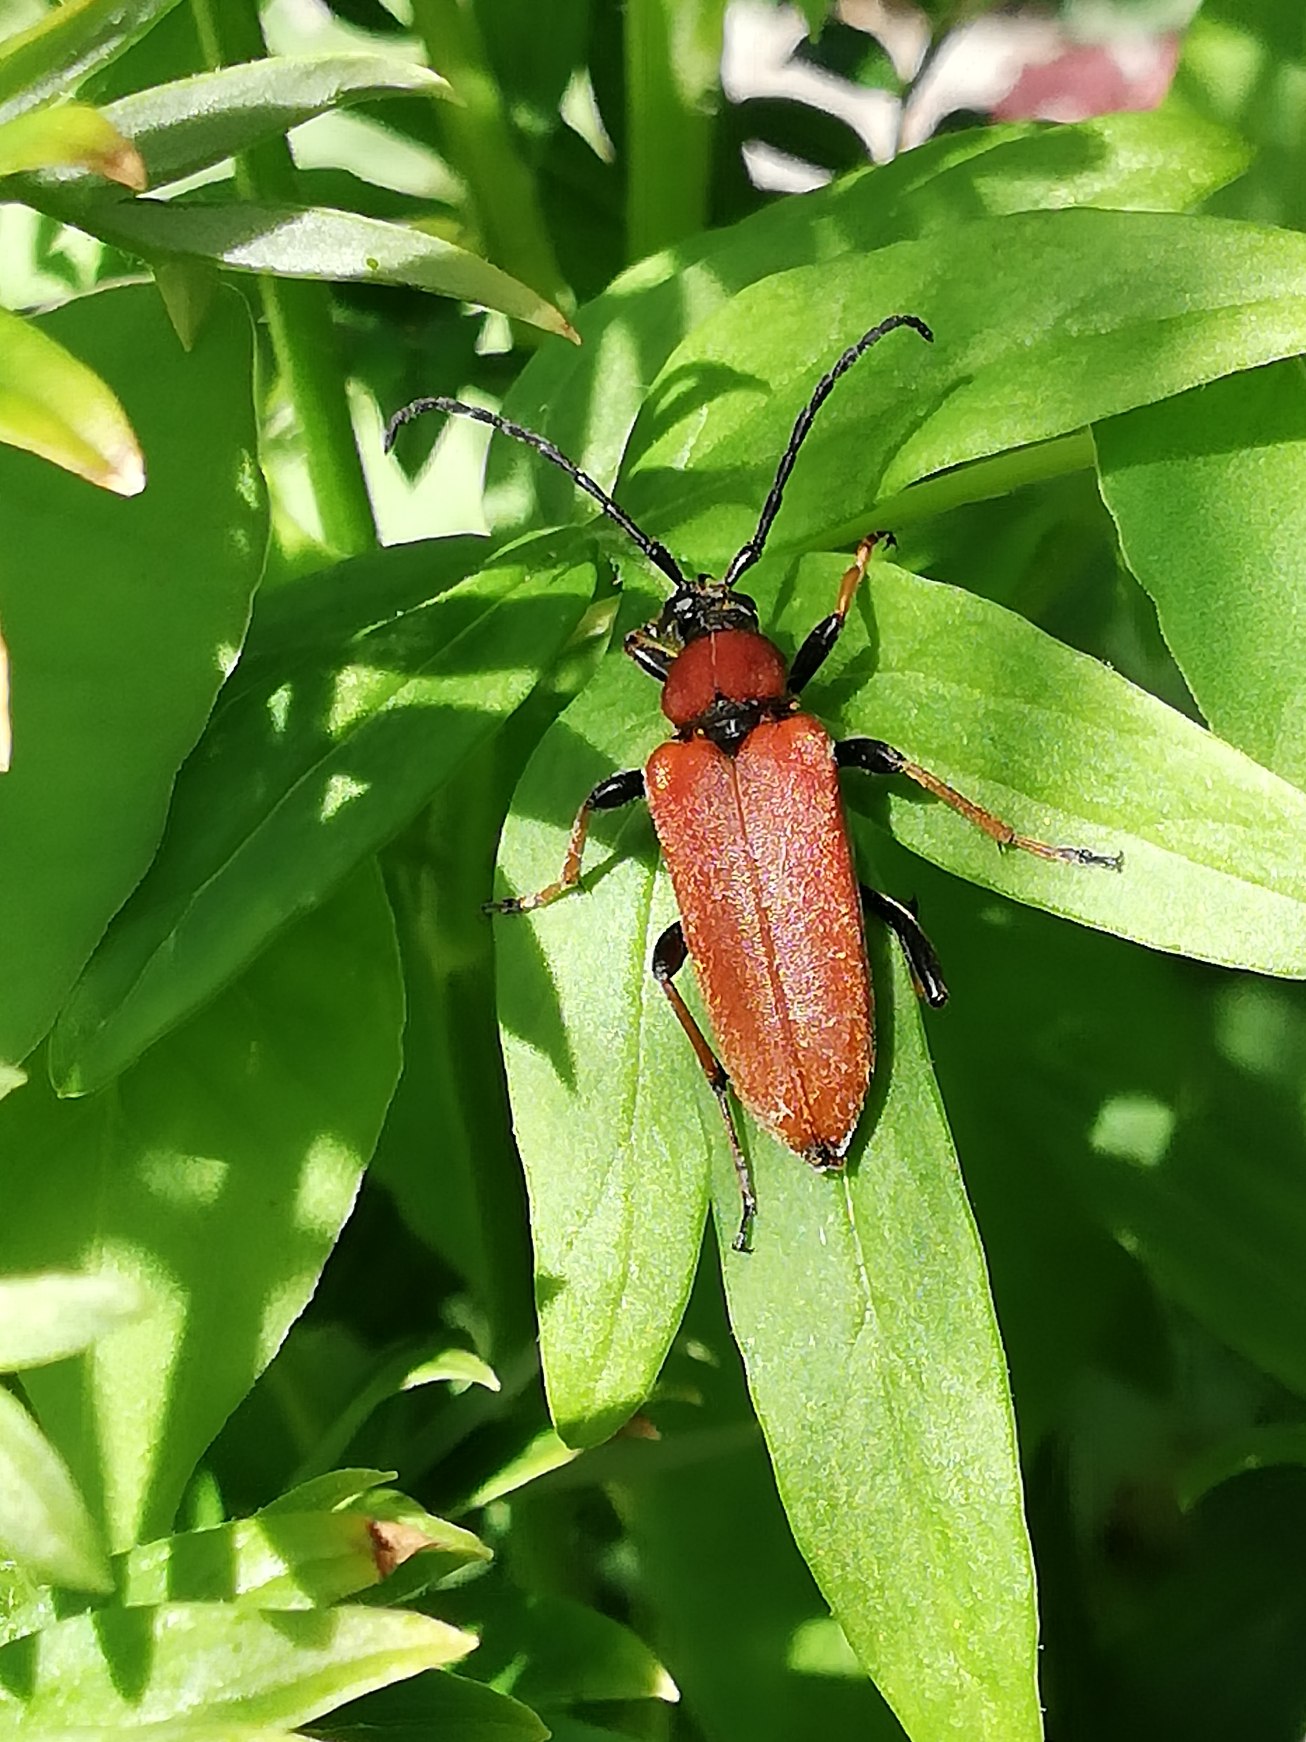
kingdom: Animalia
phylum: Arthropoda
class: Insecta
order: Coleoptera
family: Cerambycidae
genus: Stictoleptura
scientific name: Stictoleptura rubra
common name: Rød blomsterbuk
